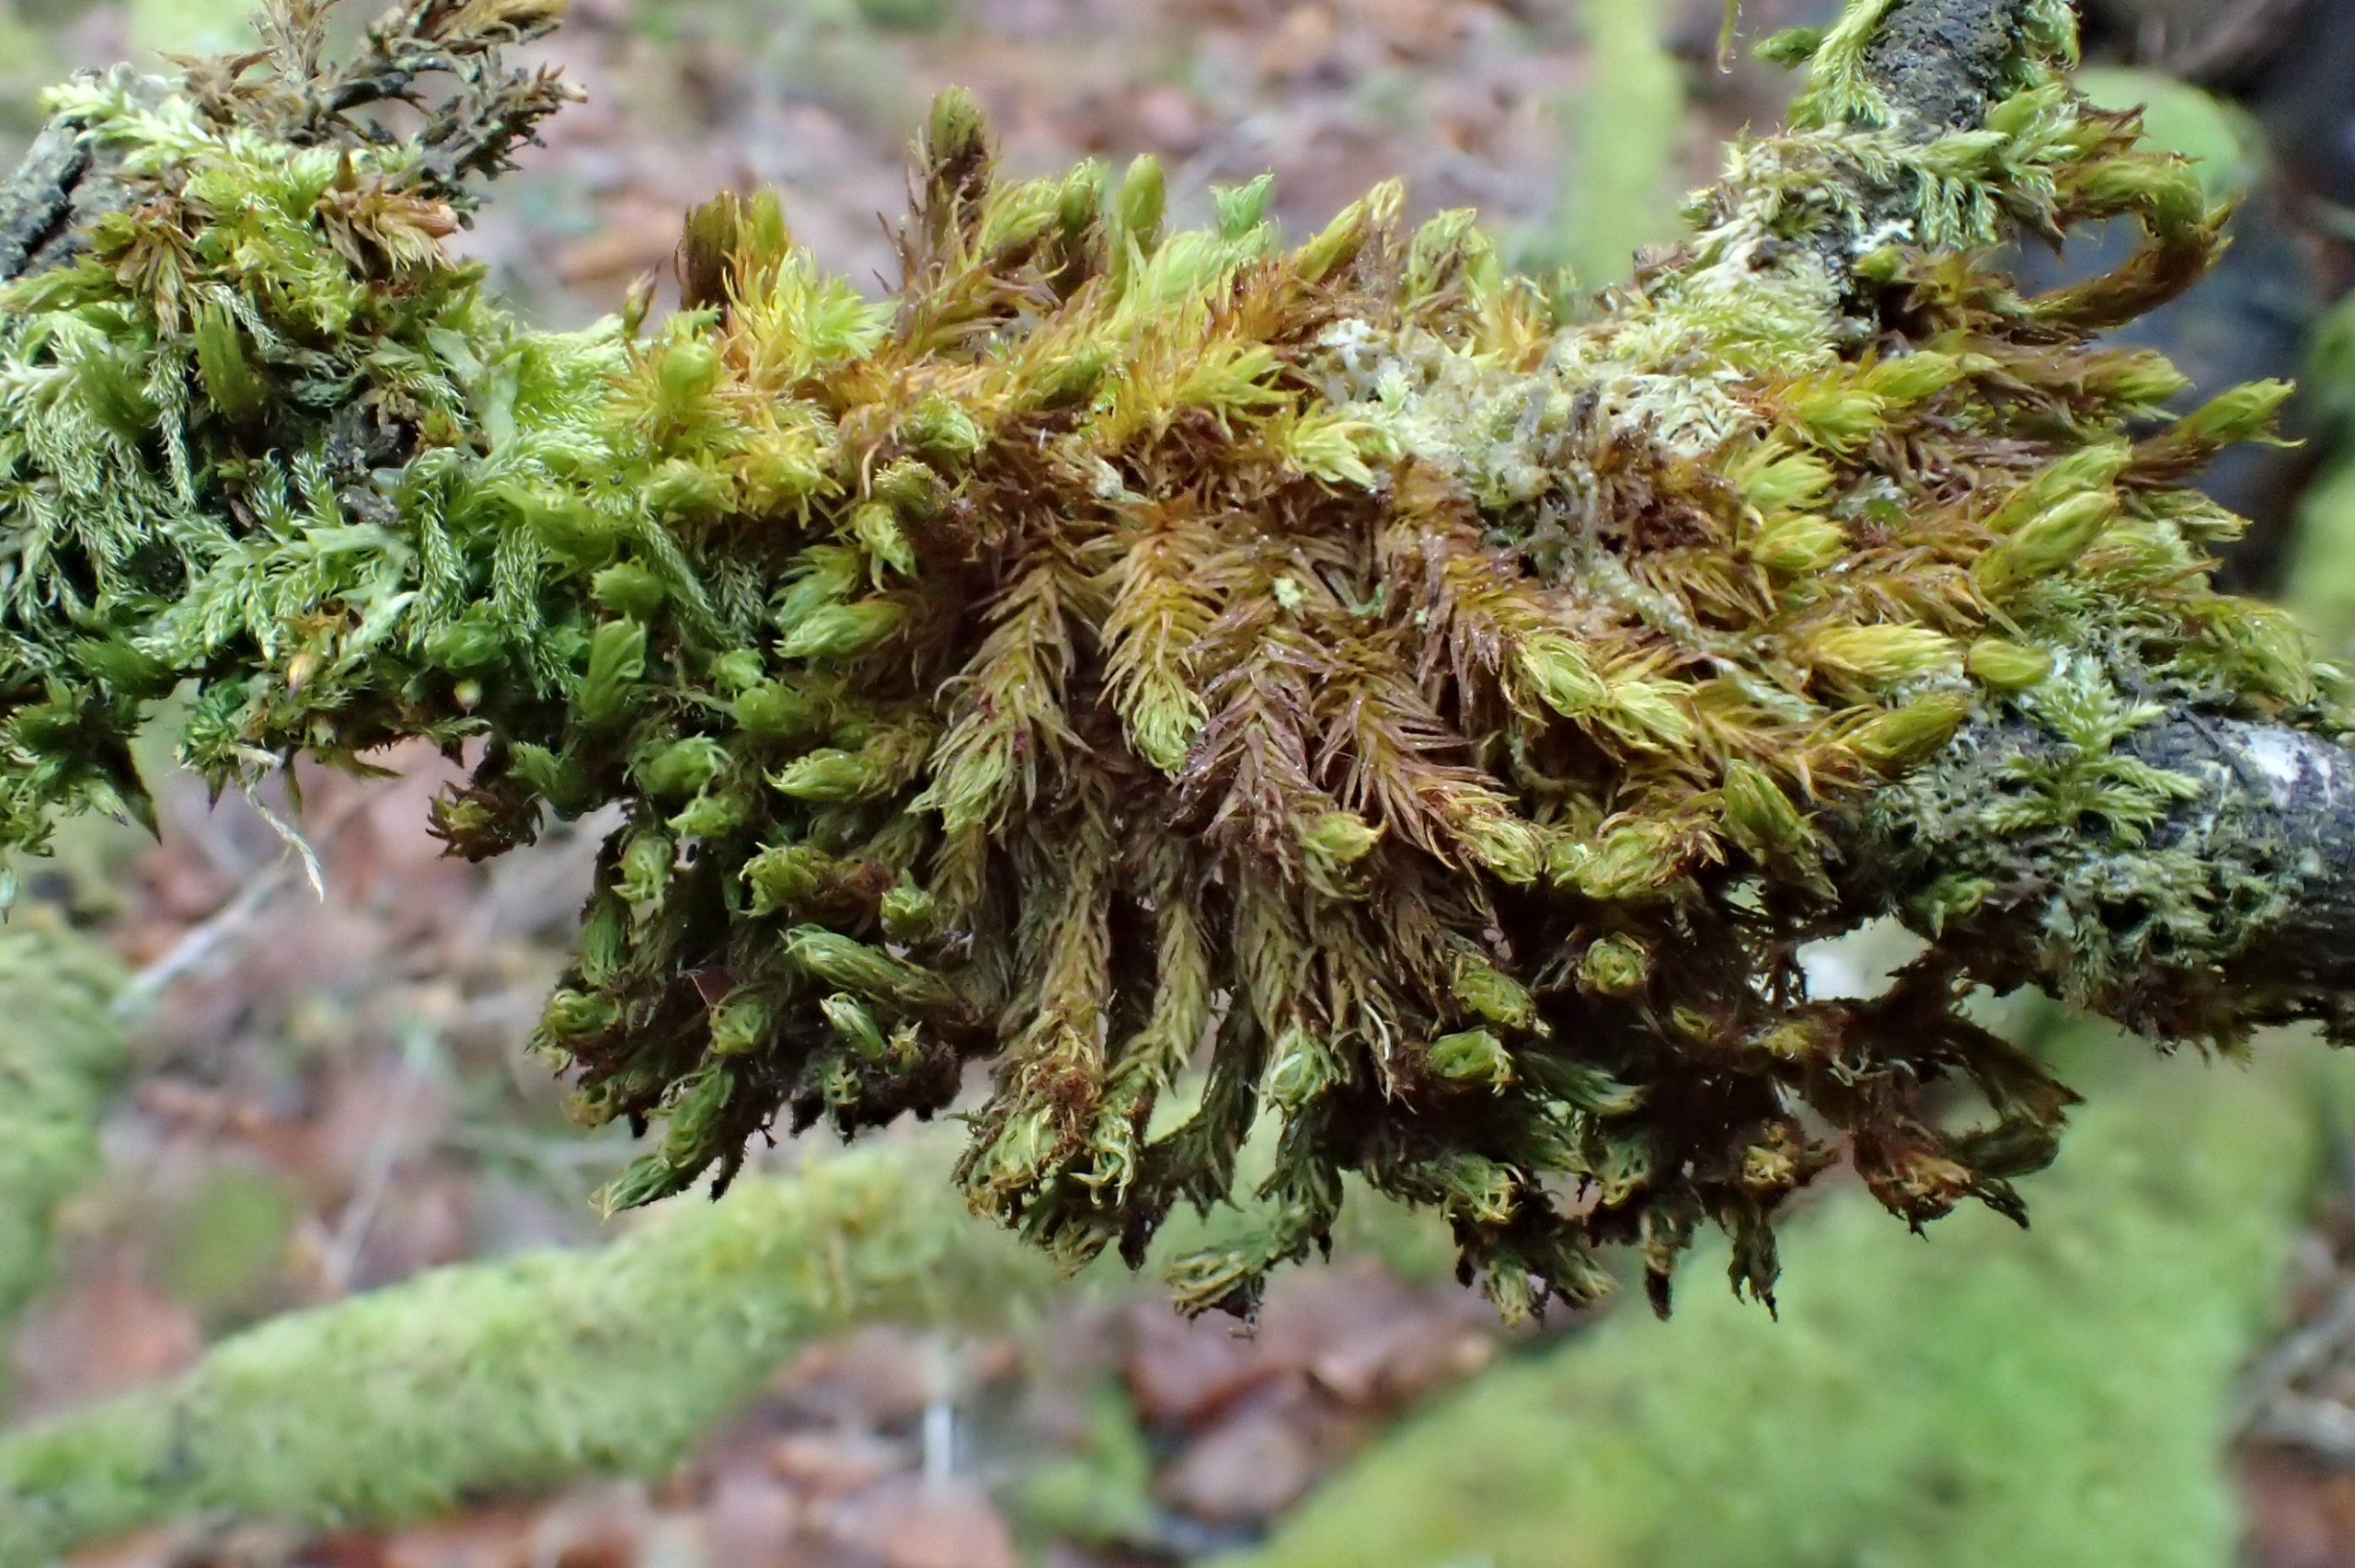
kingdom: Plantae
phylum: Bryophyta
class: Bryopsida
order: Orthotrichales
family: Orthotrichaceae
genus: Pulvigera
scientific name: Pulvigera lyellii
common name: Stor furehætte
